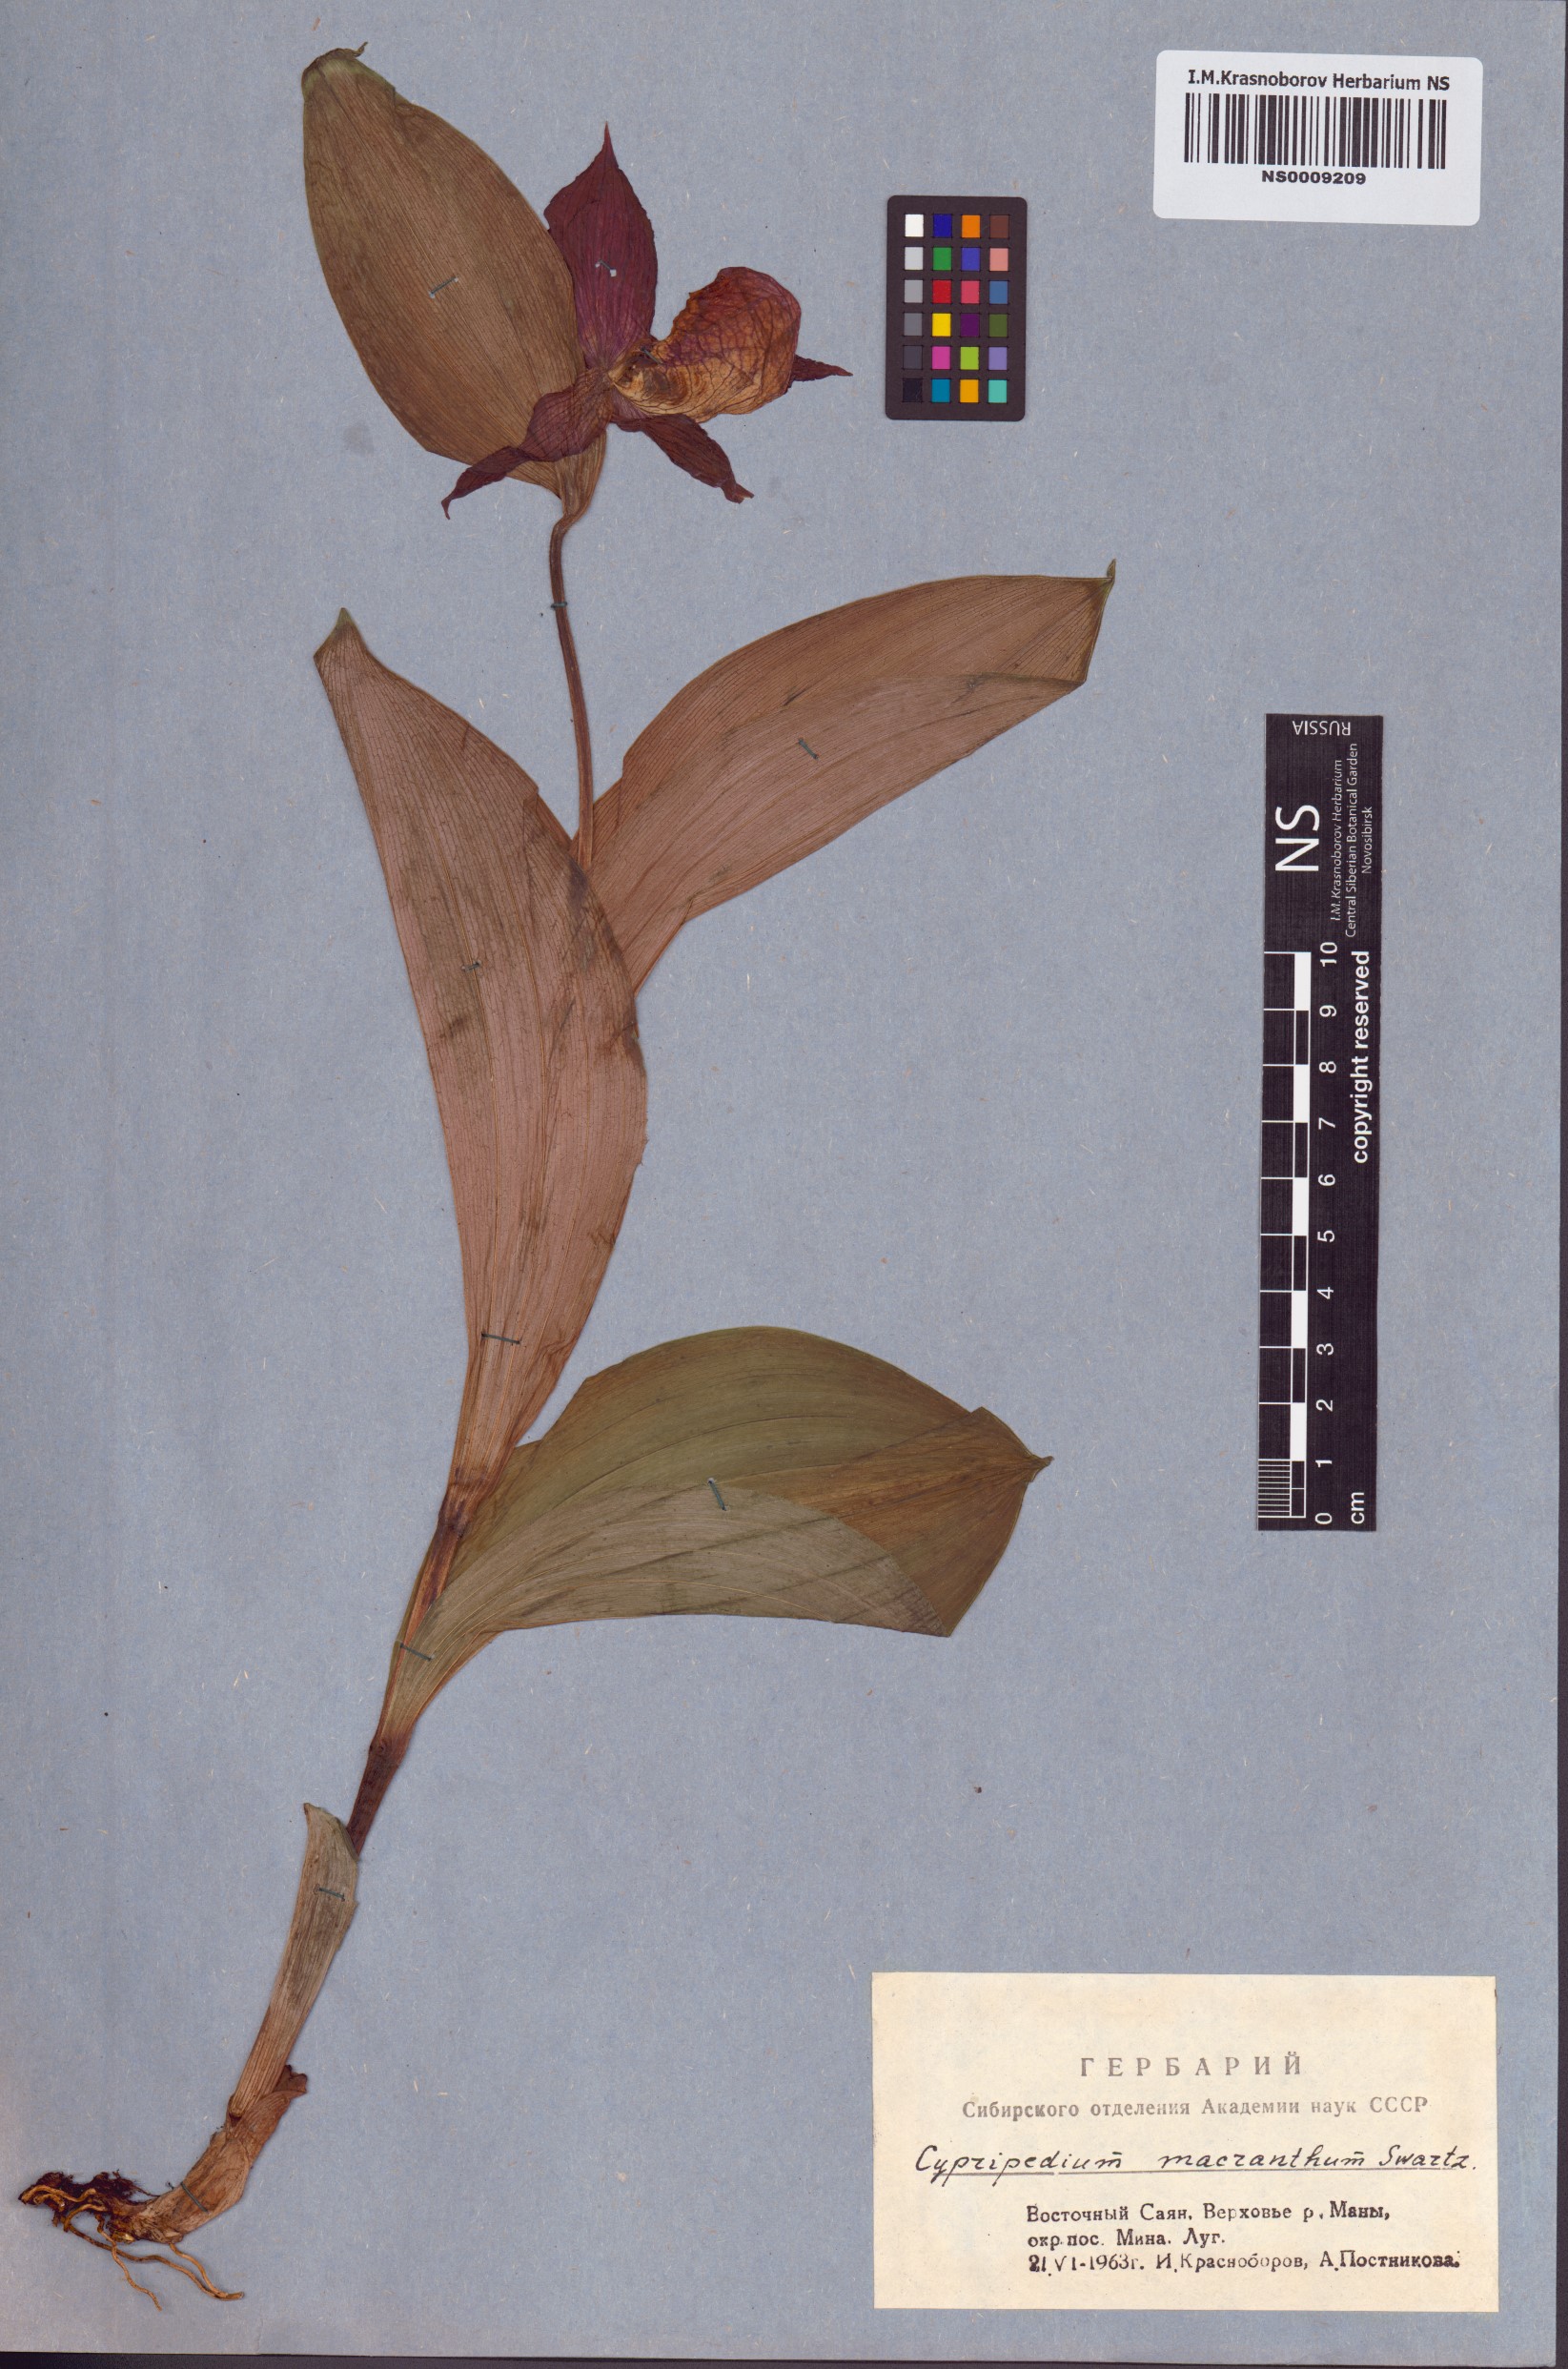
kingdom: Plantae
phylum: Tracheophyta
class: Liliopsida
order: Asparagales
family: Orchidaceae
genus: Cypripedium
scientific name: Cypripedium macranthos
